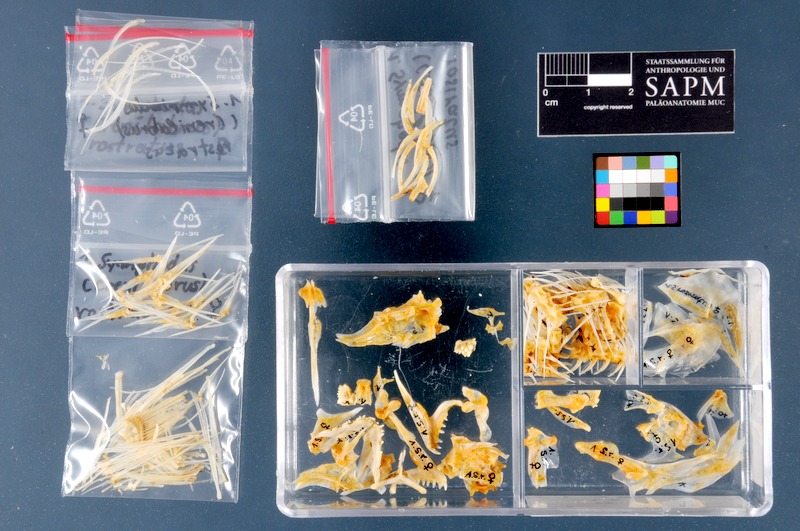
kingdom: Animalia
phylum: Chordata
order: Perciformes
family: Labridae
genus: Symphodus
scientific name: Symphodus rostratus
